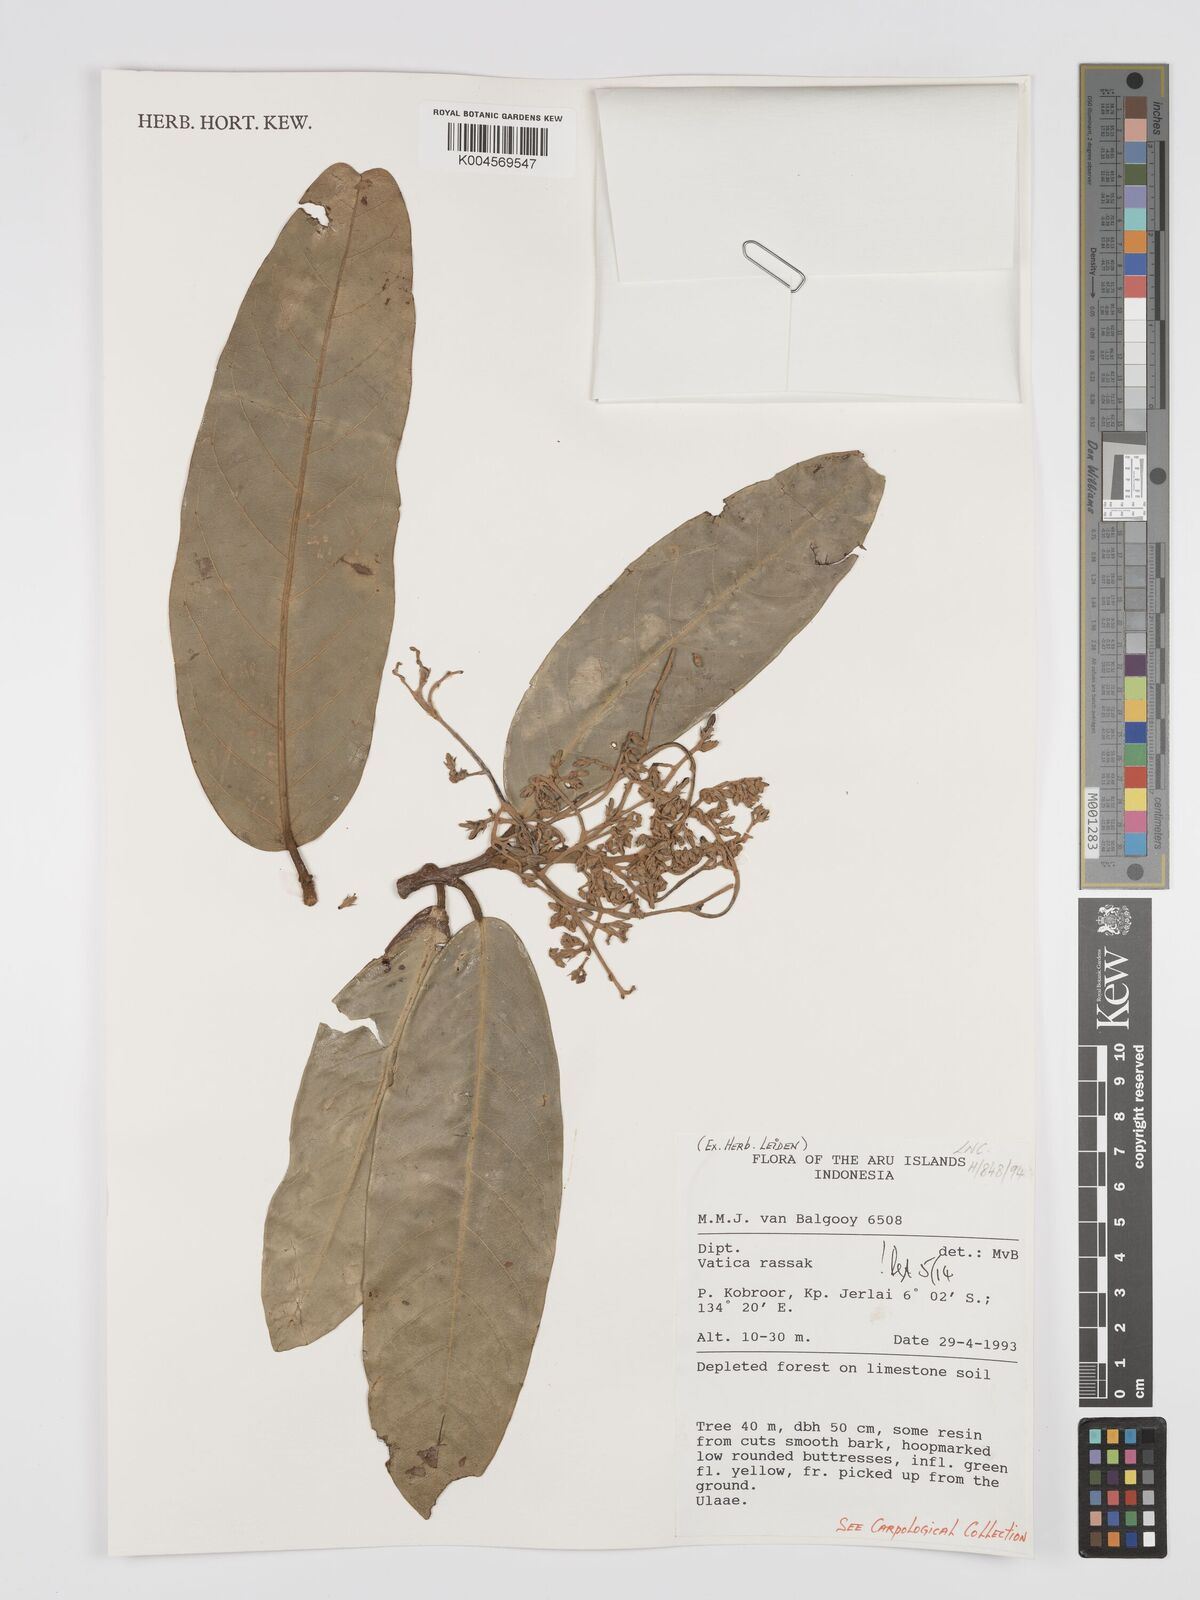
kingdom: Plantae
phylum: Tracheophyta
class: Magnoliopsida
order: Malvales
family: Dipterocarpaceae
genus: Vatica
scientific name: Vatica rassak
